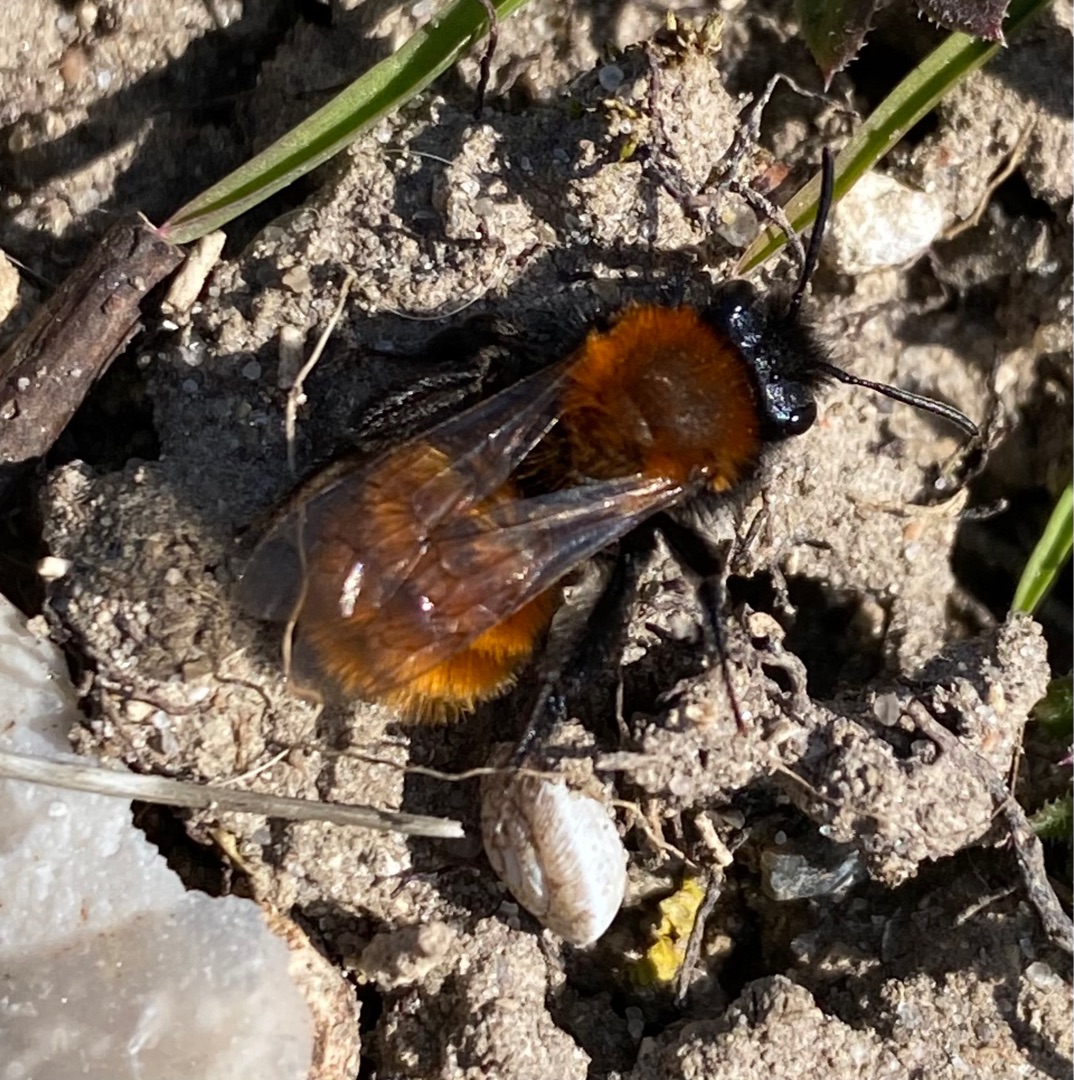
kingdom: Animalia
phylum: Arthropoda
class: Insecta
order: Hymenoptera
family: Andrenidae
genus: Andrena
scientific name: Andrena fulva
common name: Rødpelset jordbi
